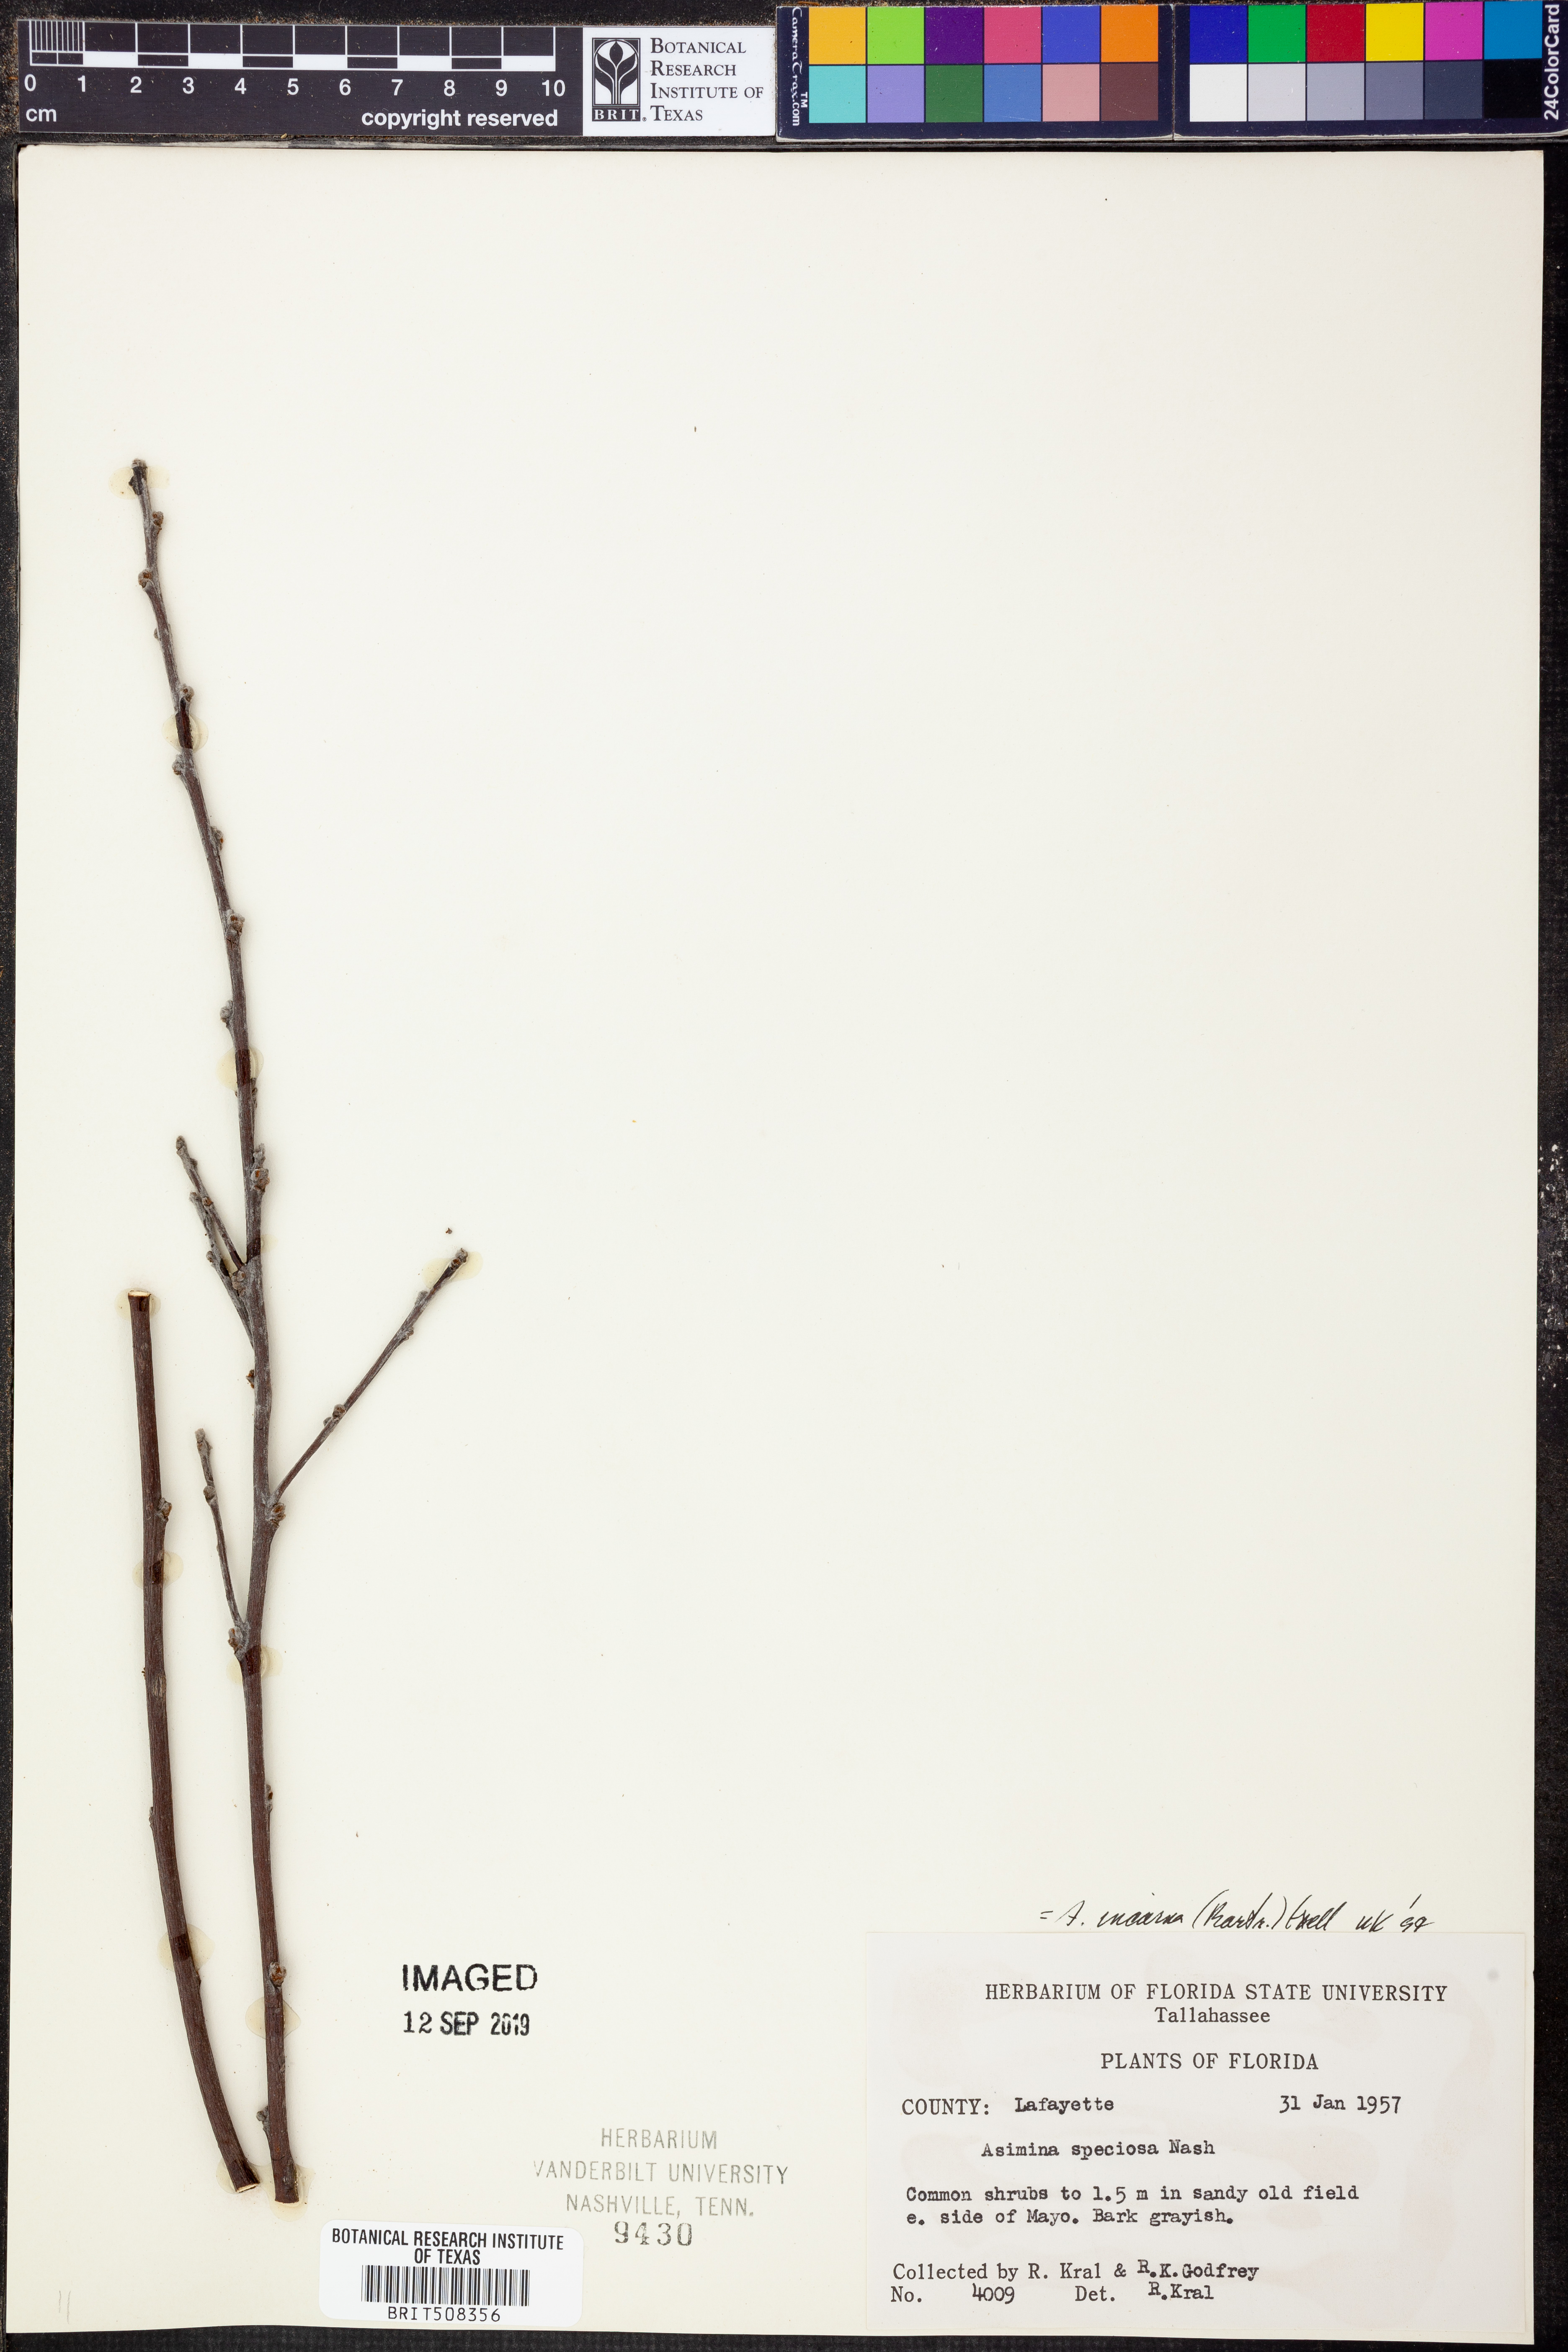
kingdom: Plantae
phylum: Tracheophyta
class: Magnoliopsida
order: Magnoliales
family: Annonaceae
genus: Asimina
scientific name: Asimina speciosa
